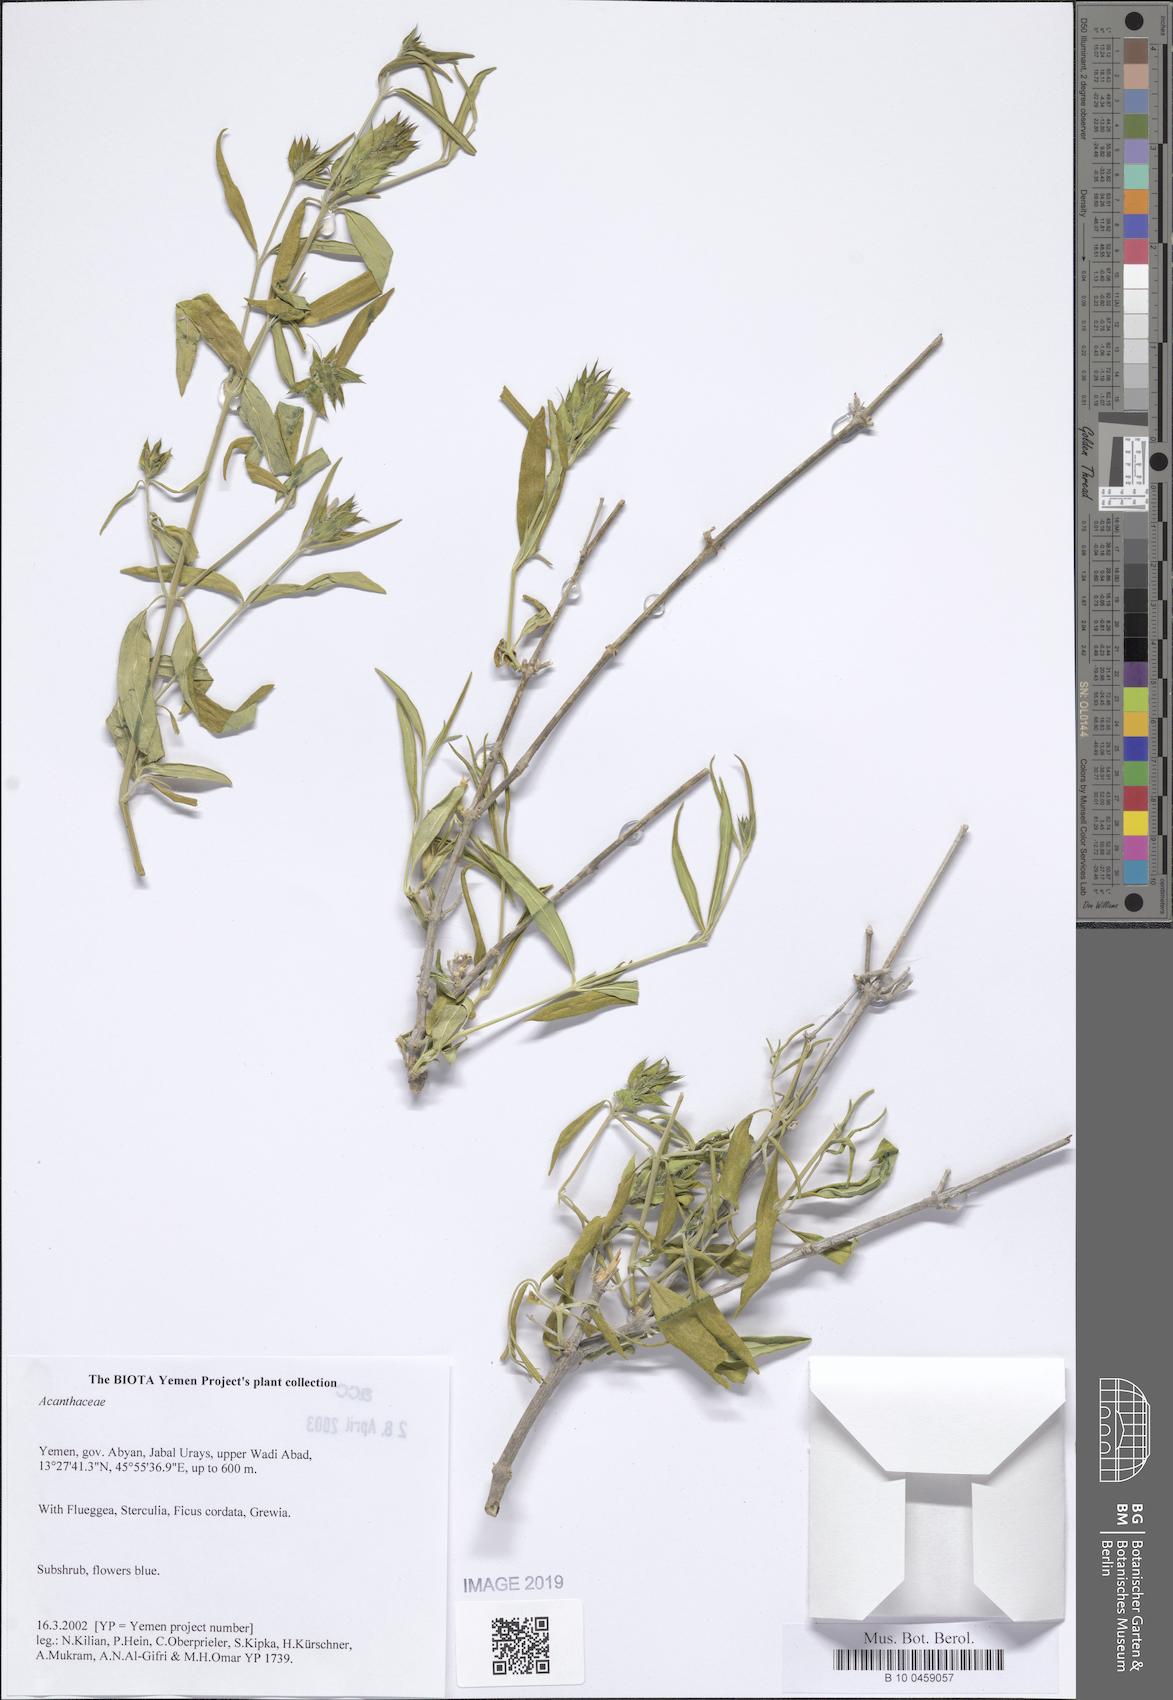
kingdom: Plantae
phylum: Tracheophyta
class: Magnoliopsida
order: Lamiales
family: Acanthaceae
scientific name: Acanthaceae
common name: Acanthaceae
